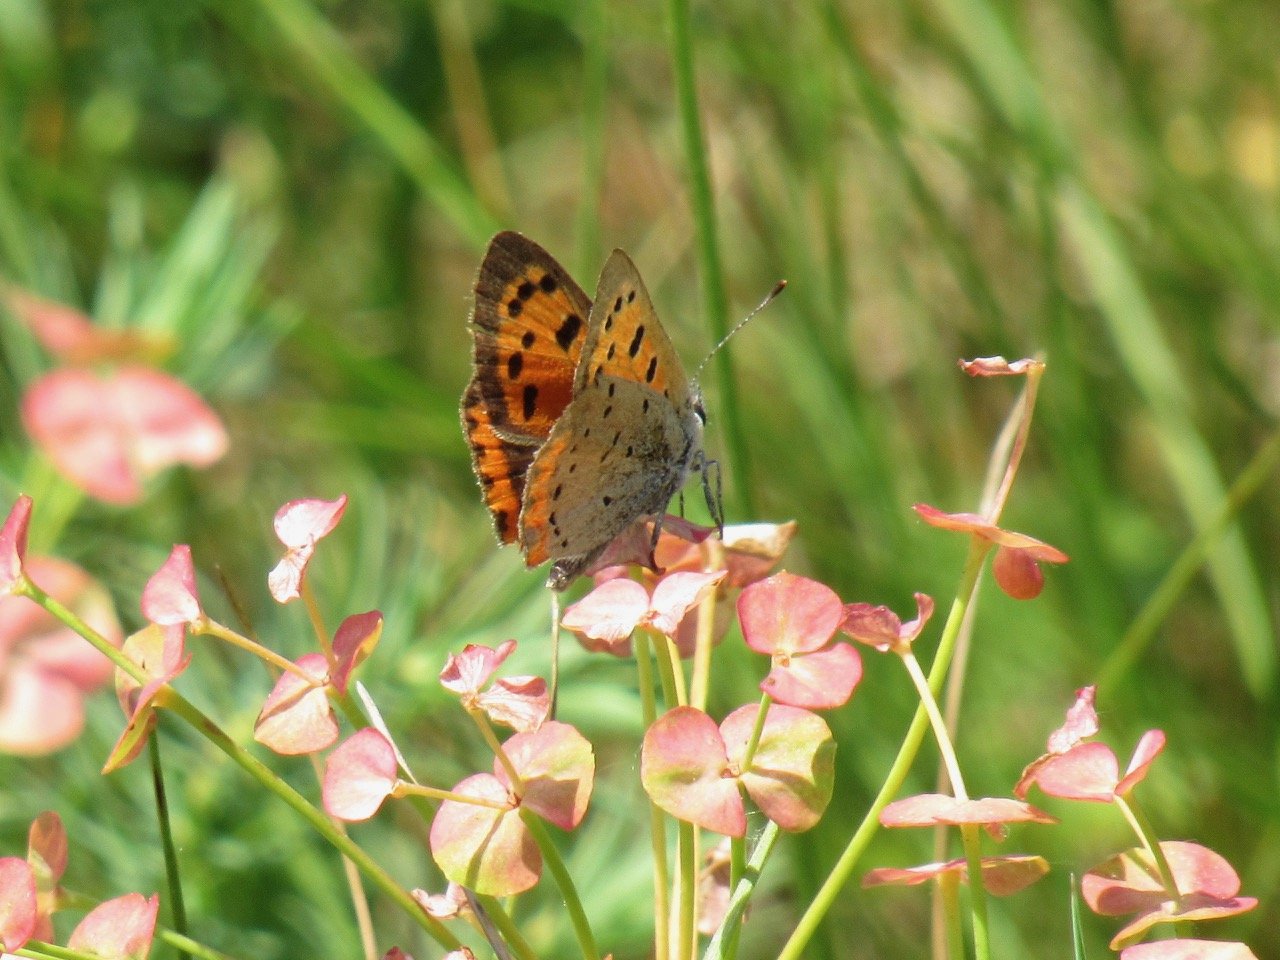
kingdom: Animalia
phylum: Arthropoda
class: Insecta
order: Lepidoptera
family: Lycaenidae
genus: Lycaena
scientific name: Lycaena phlaeas
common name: American Copper
